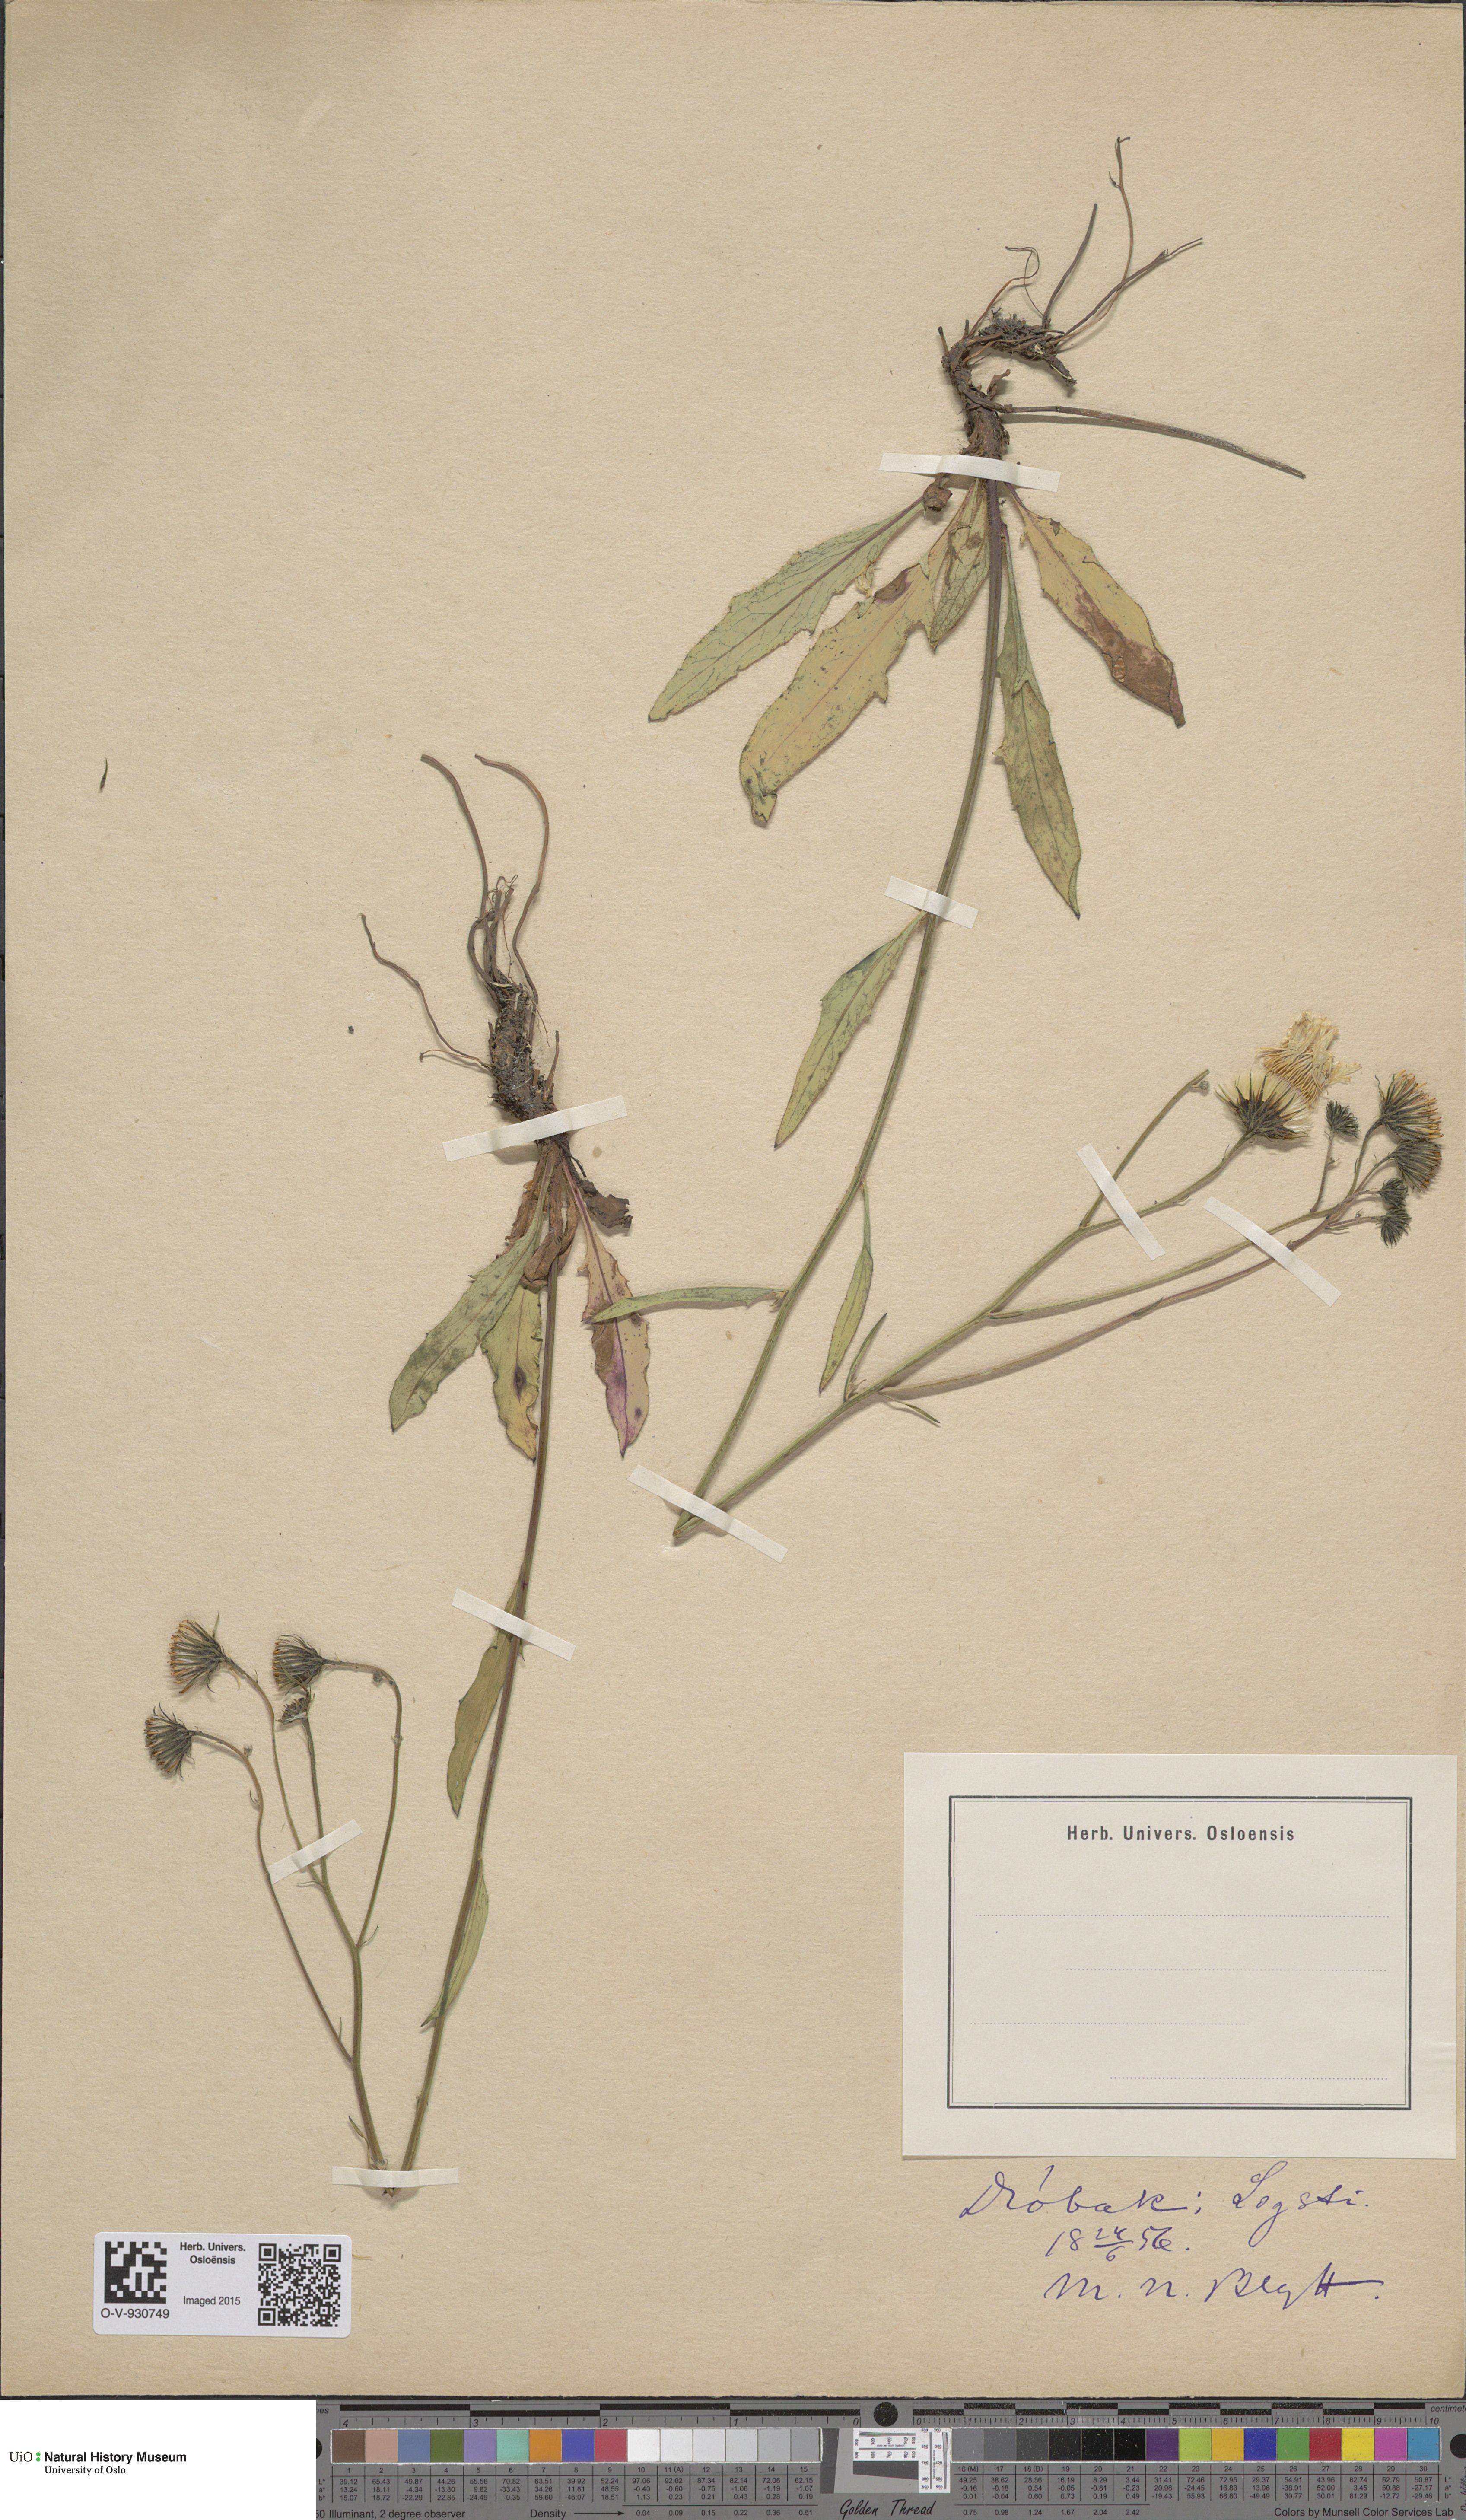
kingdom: Plantae
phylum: Tracheophyta
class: Magnoliopsida
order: Asterales
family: Asteraceae
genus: Hieracium
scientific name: Hieracium saxifragum
